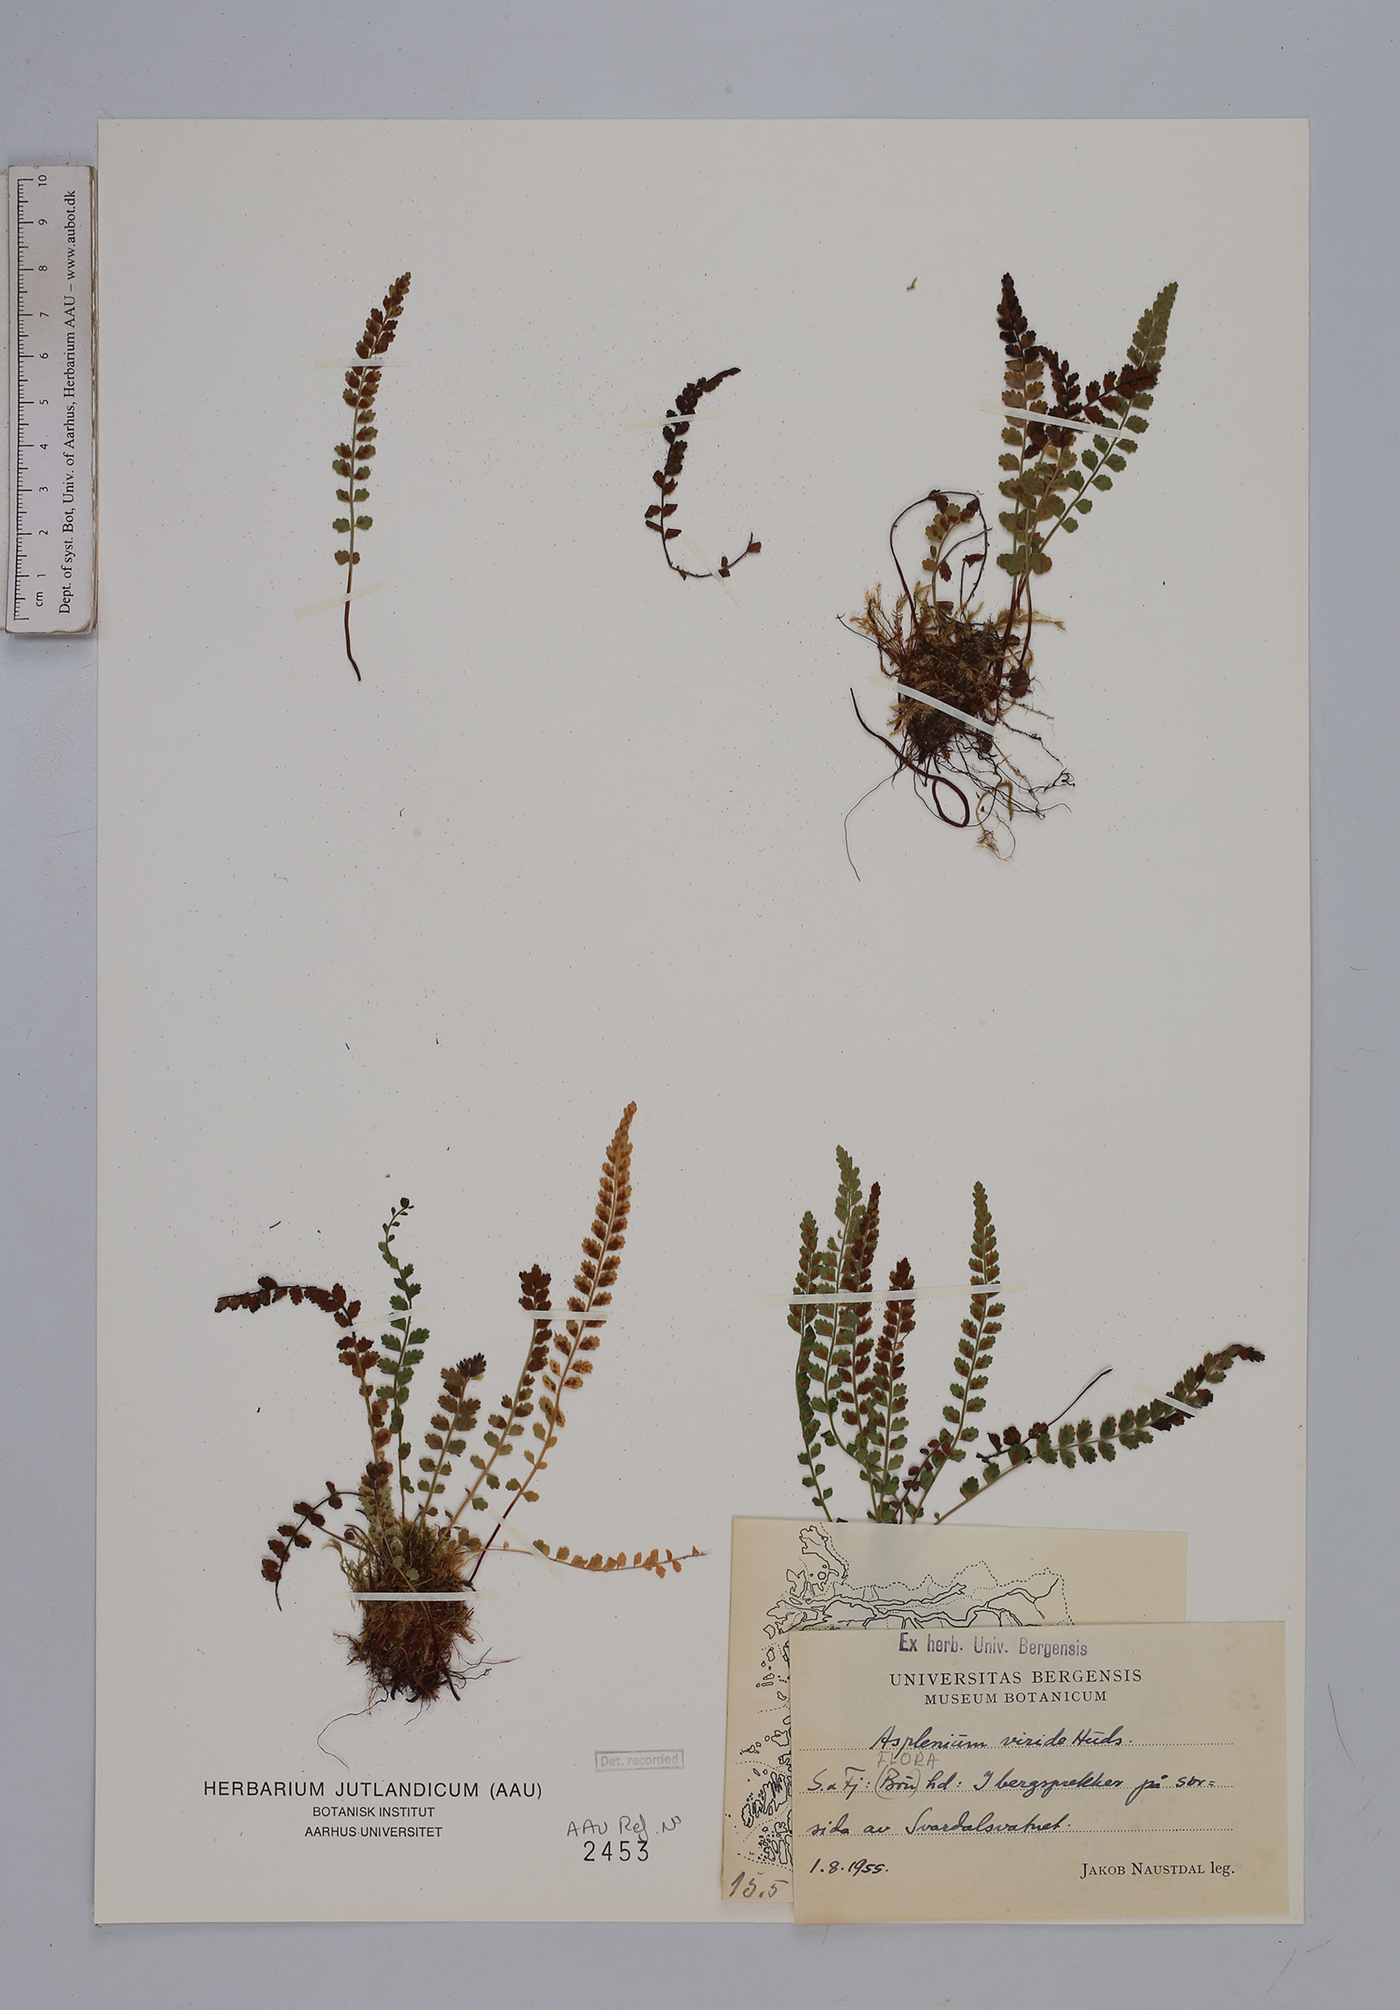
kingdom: Plantae
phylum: Tracheophyta
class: Polypodiopsida
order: Polypodiales
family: Aspleniaceae
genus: Asplenium
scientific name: Asplenium viride
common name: Green spleenwort
